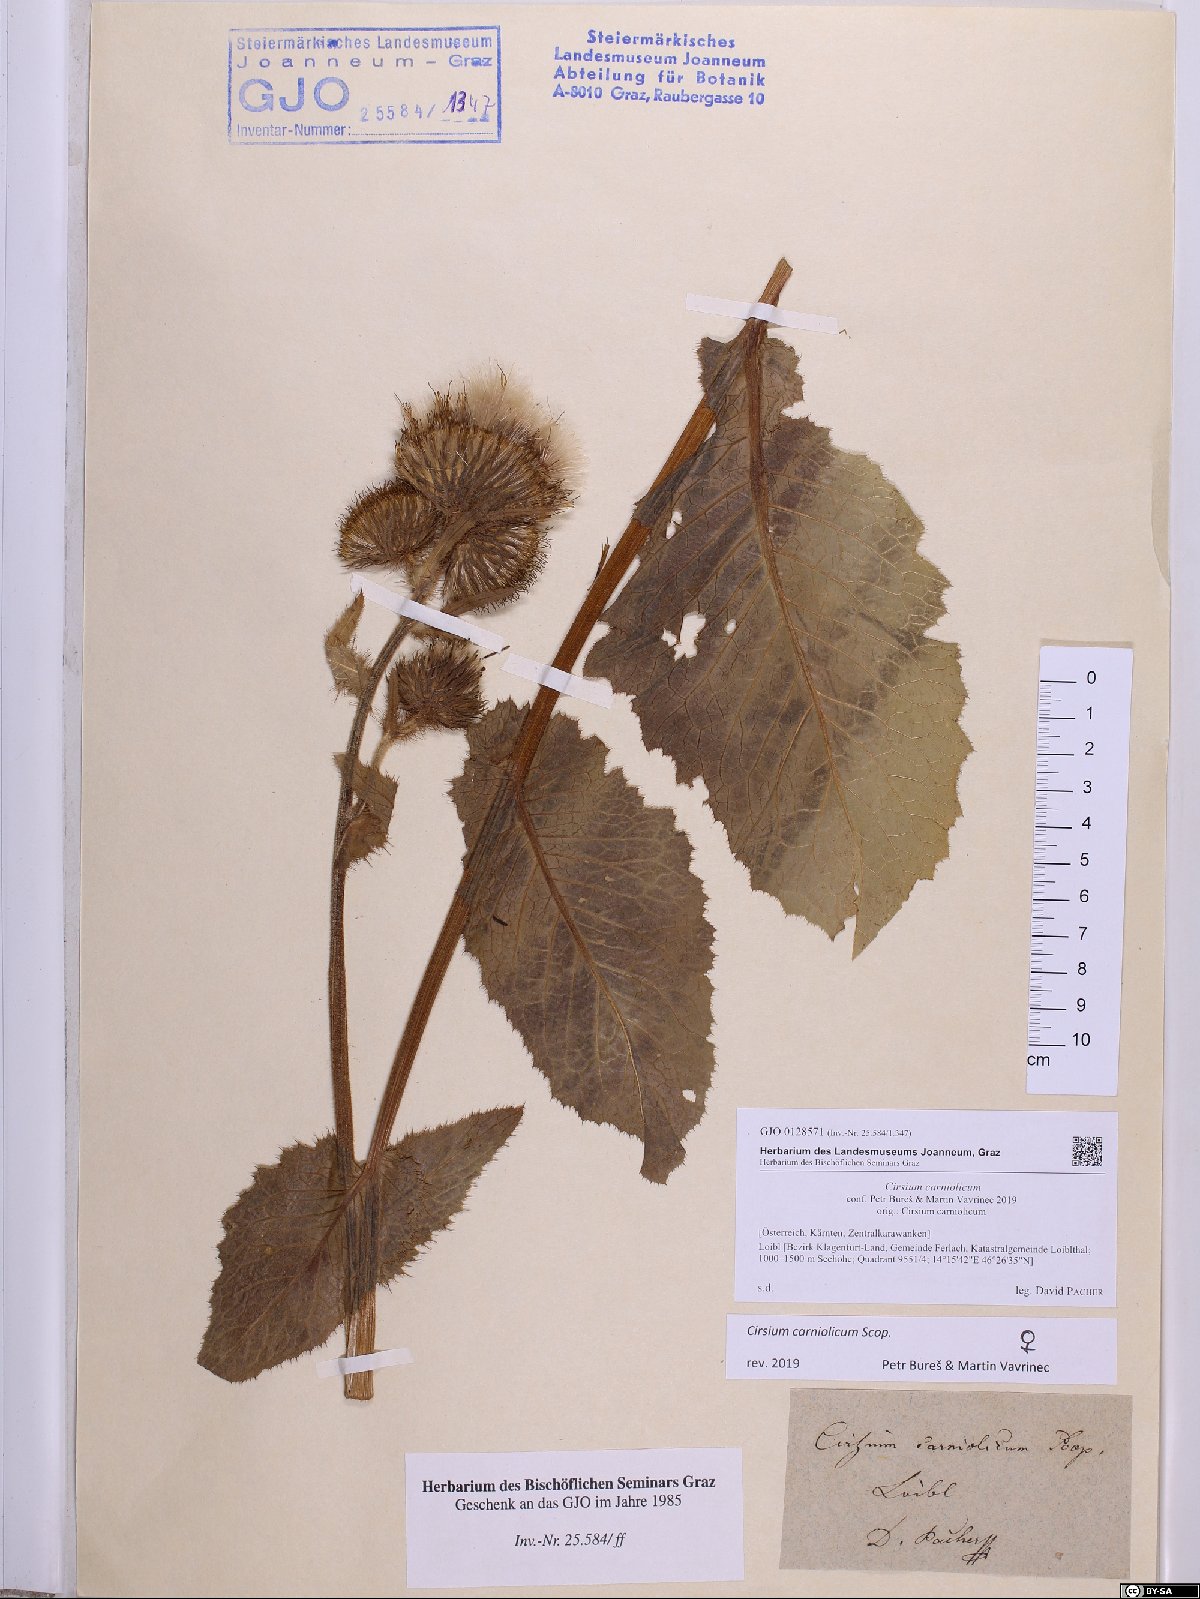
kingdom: Plantae
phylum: Tracheophyta
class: Magnoliopsida
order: Asterales
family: Asteraceae
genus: Cirsium
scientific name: Cirsium carniolicum
